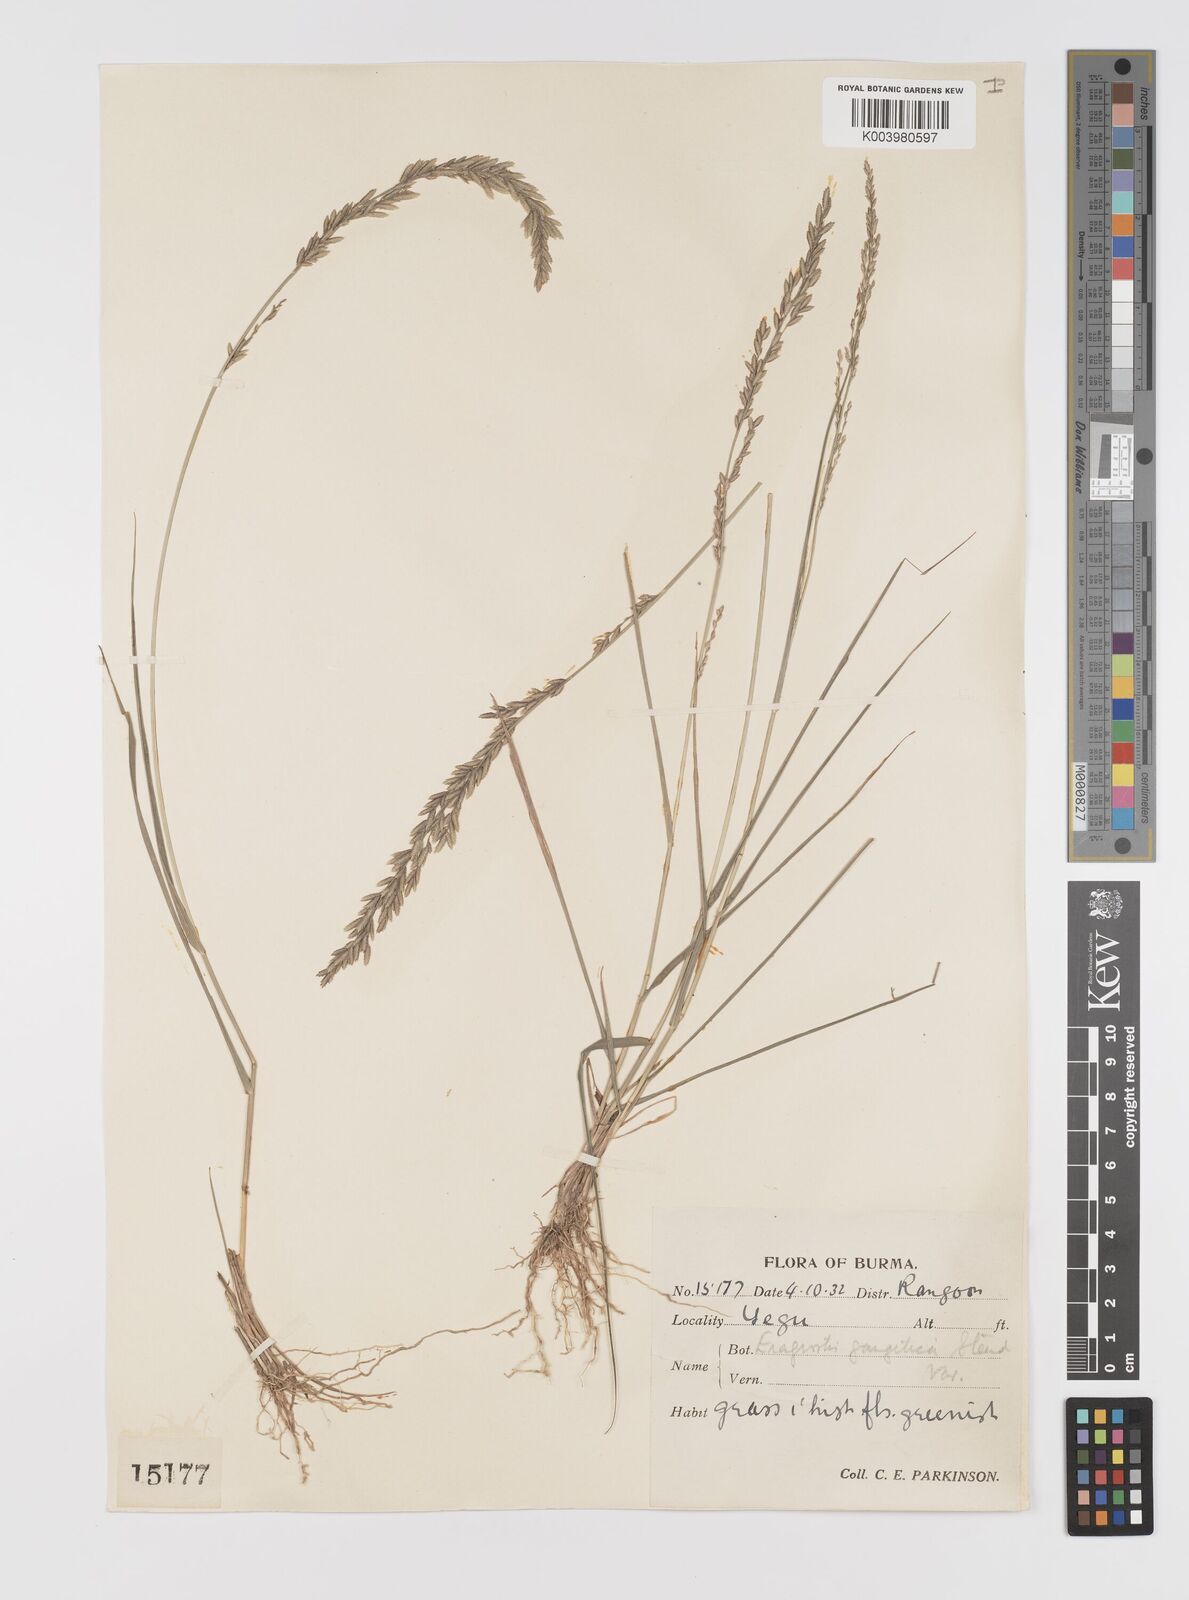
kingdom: Plantae
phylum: Tracheophyta
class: Liliopsida
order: Poales
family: Poaceae
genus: Eragrostis
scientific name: Eragrostis atrovirens
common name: Thalia lovegrass
